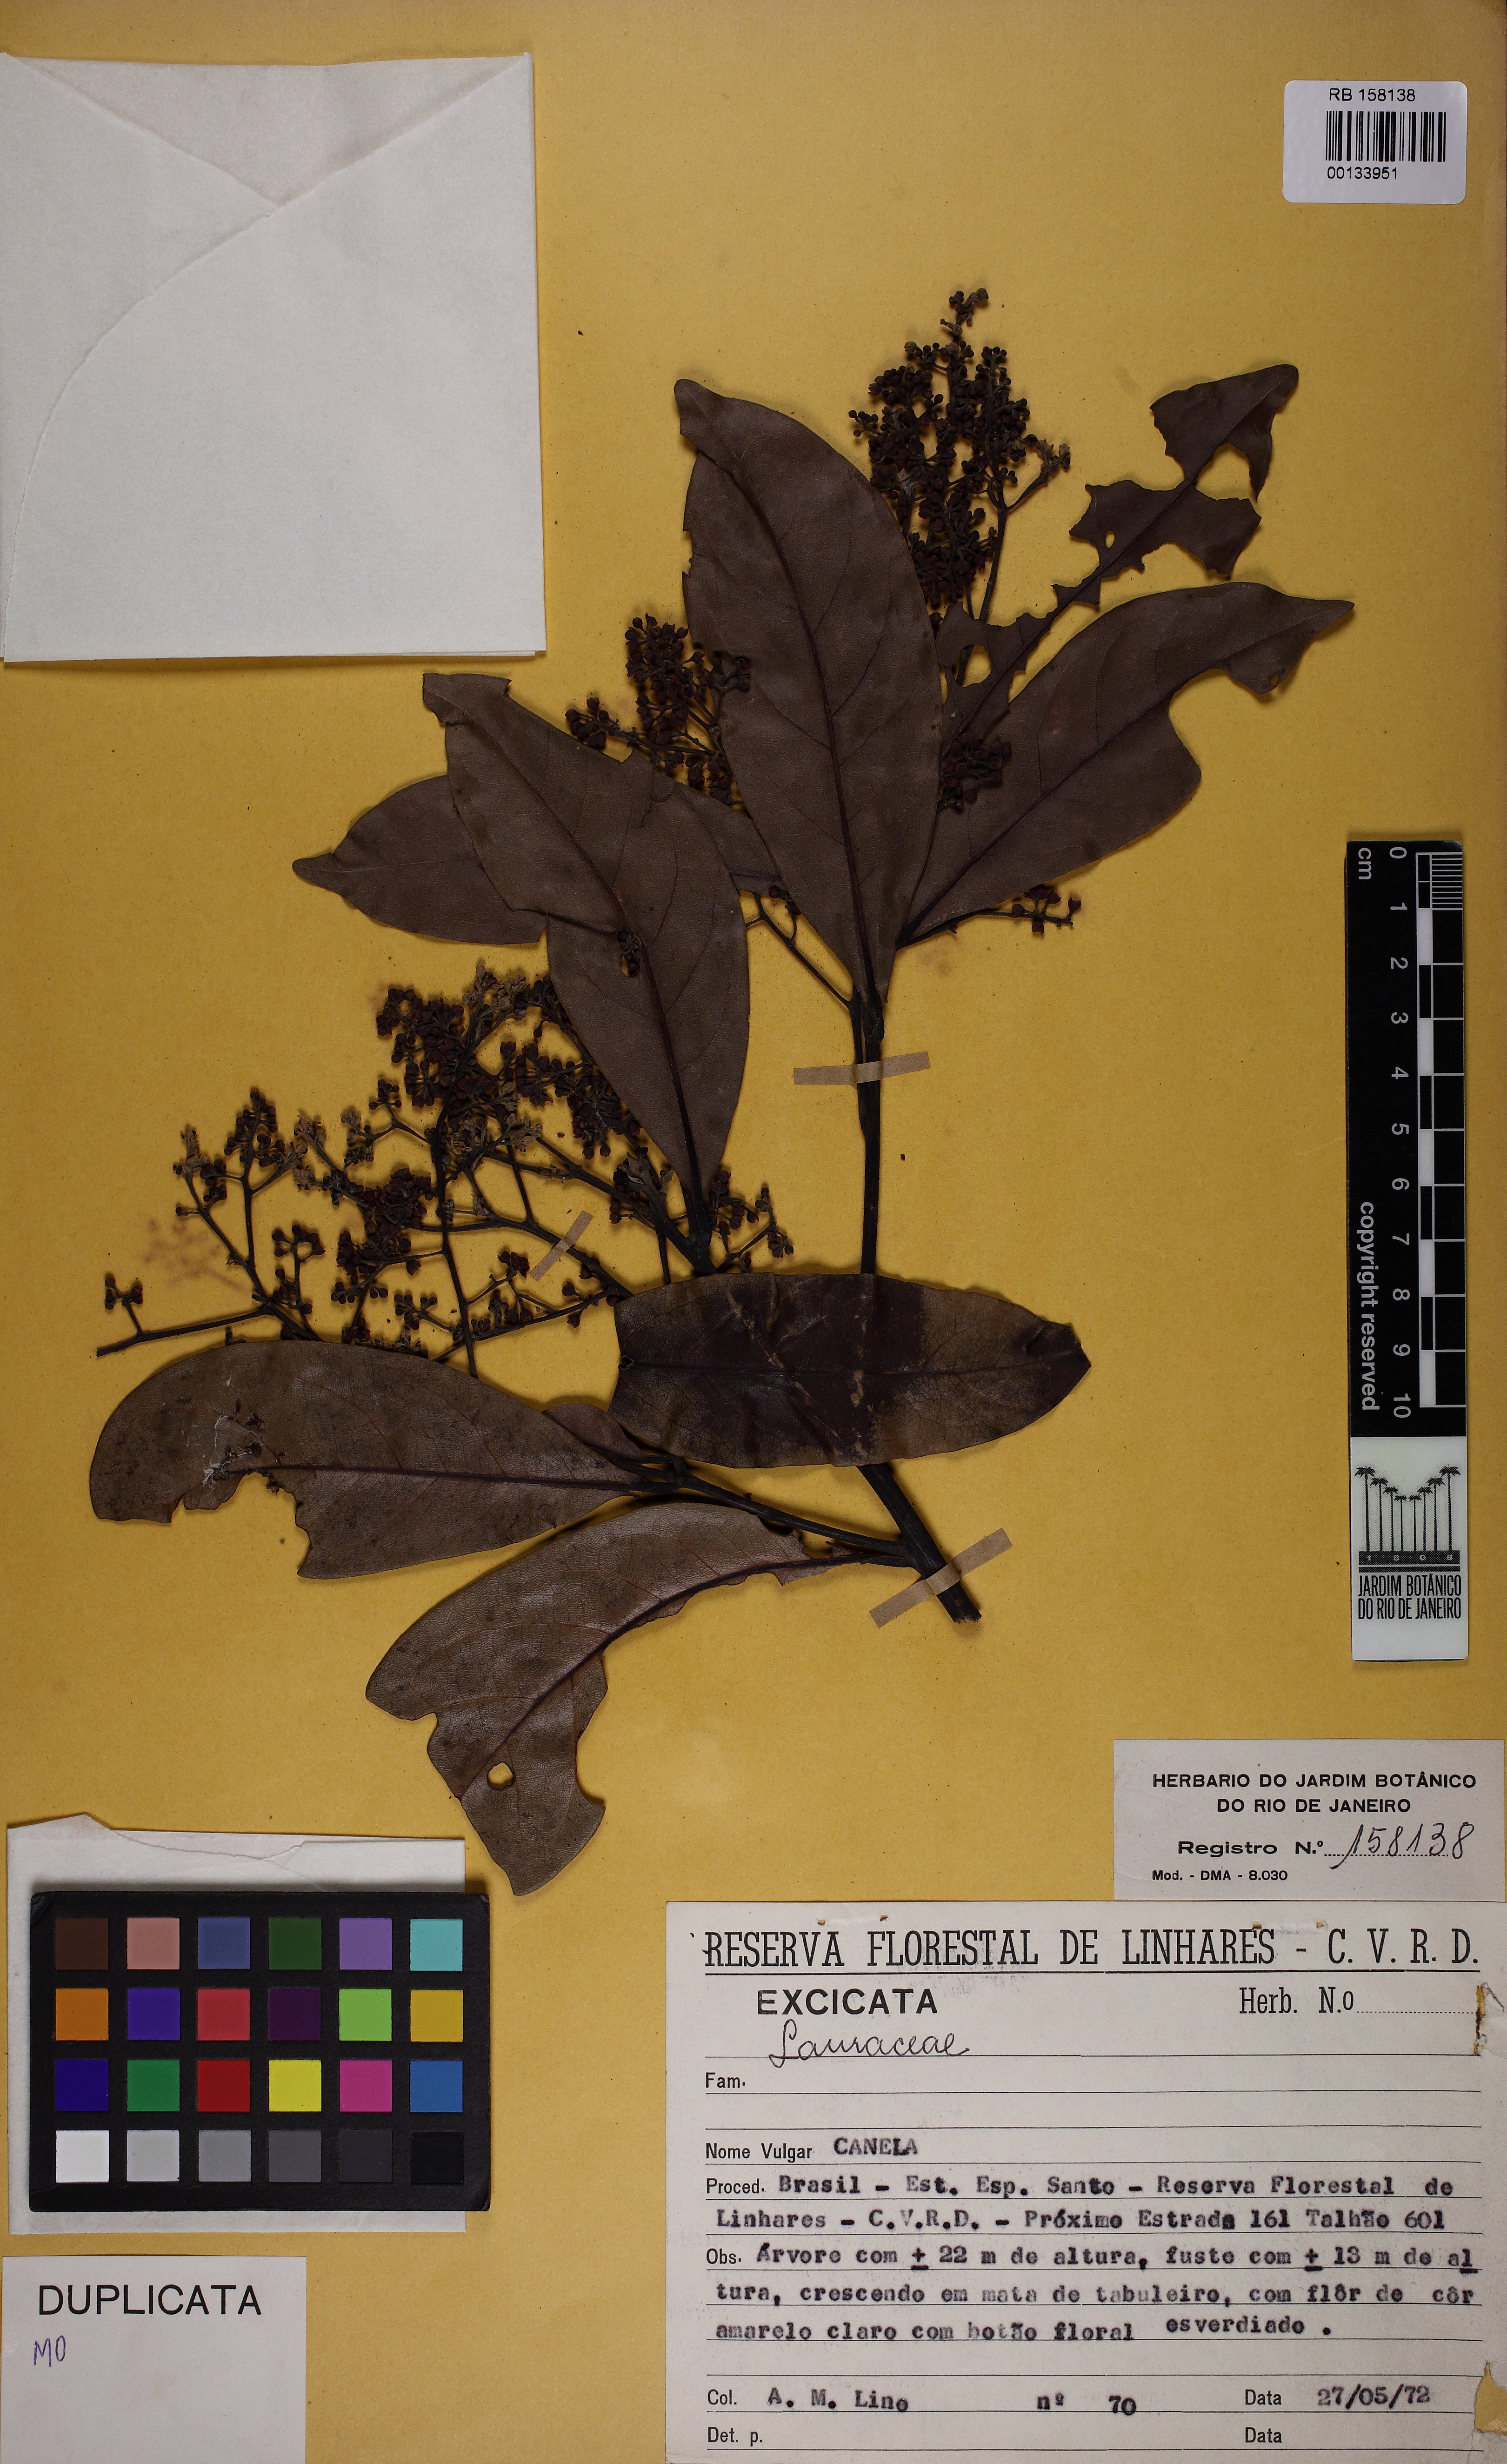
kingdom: Plantae
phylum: Tracheophyta
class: Magnoliopsida
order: Laurales
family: Lauraceae
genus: Ocotea
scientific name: Ocotea floribunda
